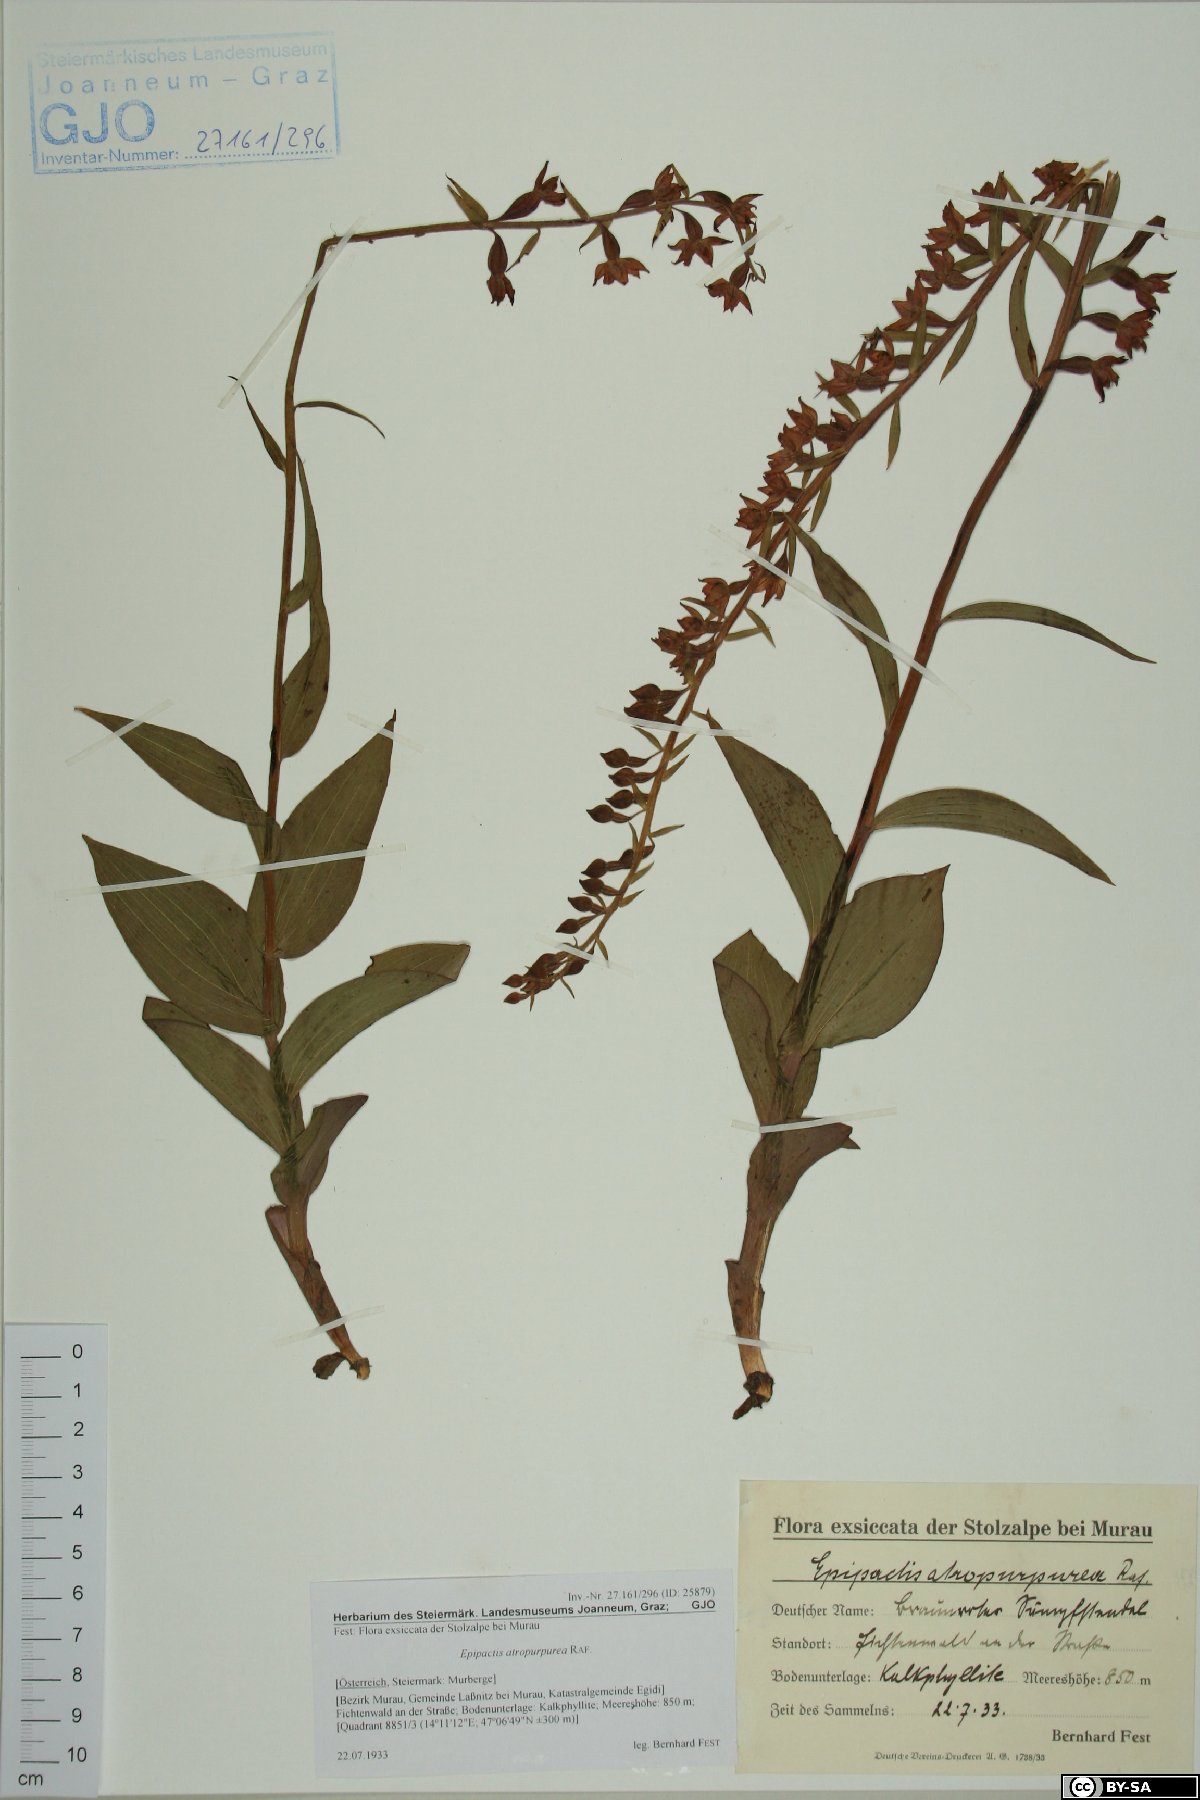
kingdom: Plantae
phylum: Tracheophyta
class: Liliopsida
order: Asparagales
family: Orchidaceae
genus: Epipactis
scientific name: Epipactis atrorubens
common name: Dark-red helleborine
